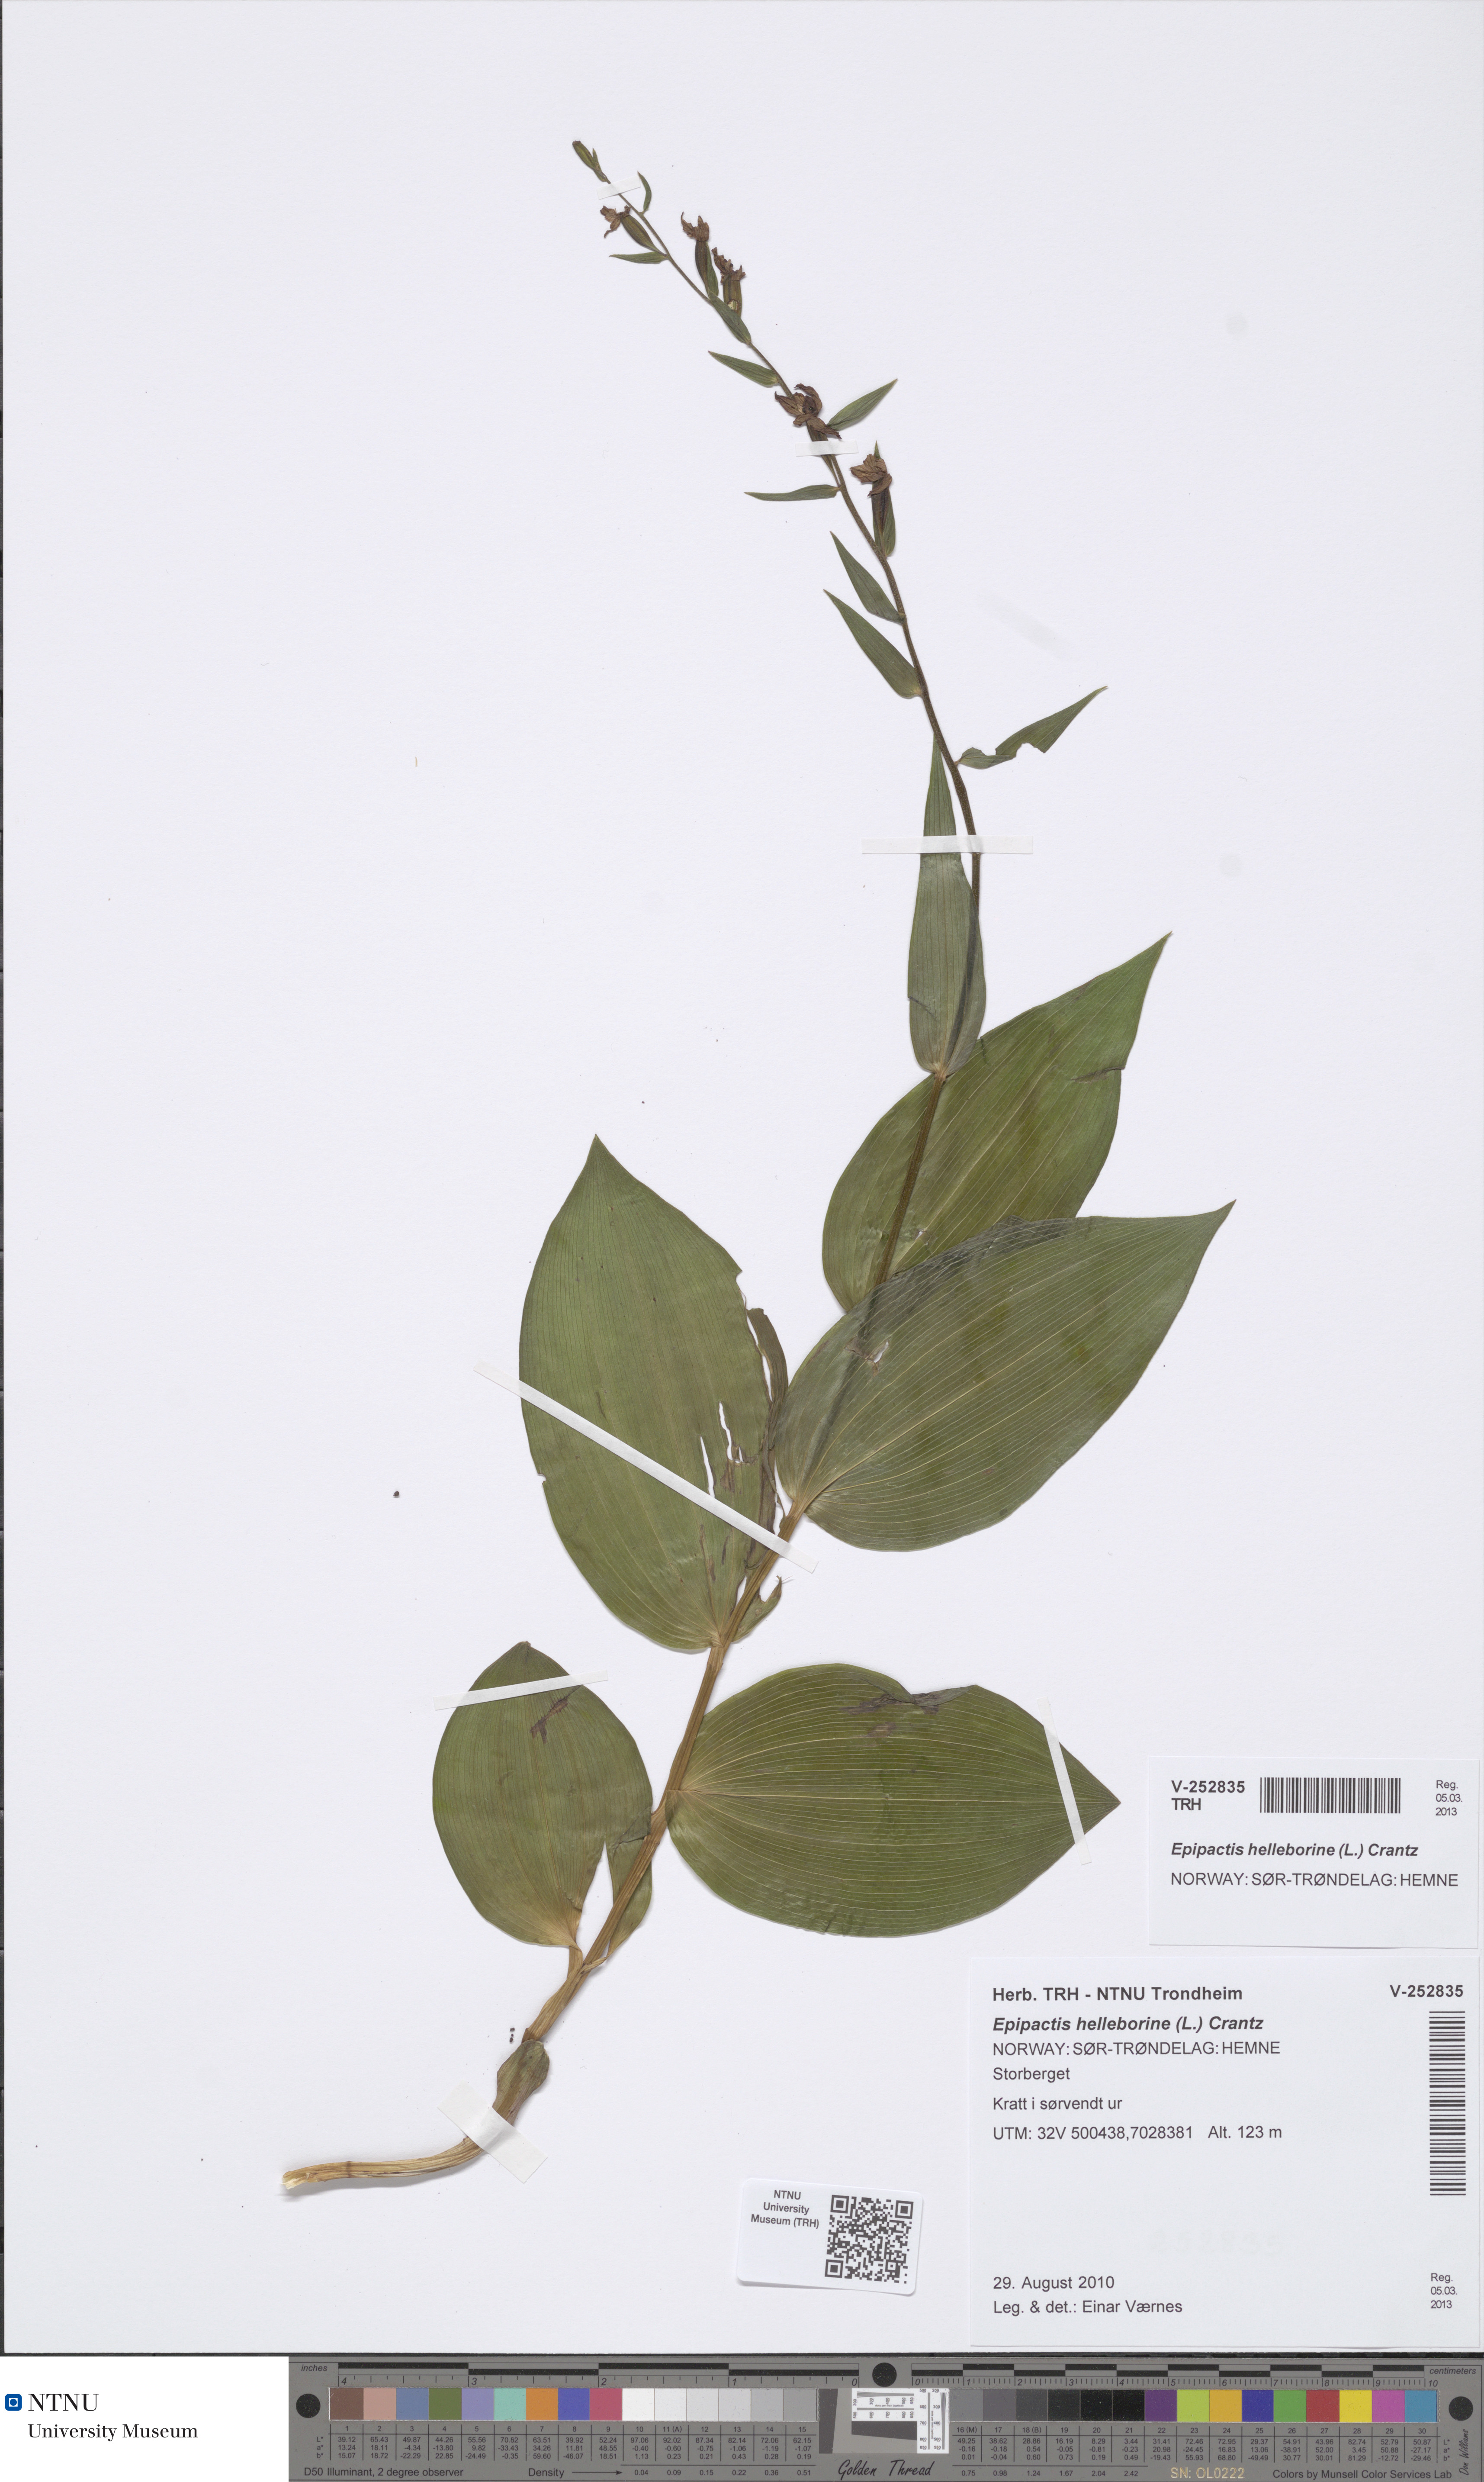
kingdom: Plantae
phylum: Tracheophyta
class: Liliopsida
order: Asparagales
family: Orchidaceae
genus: Epipactis
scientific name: Epipactis helleborine
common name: Broad-leaved helleborine
